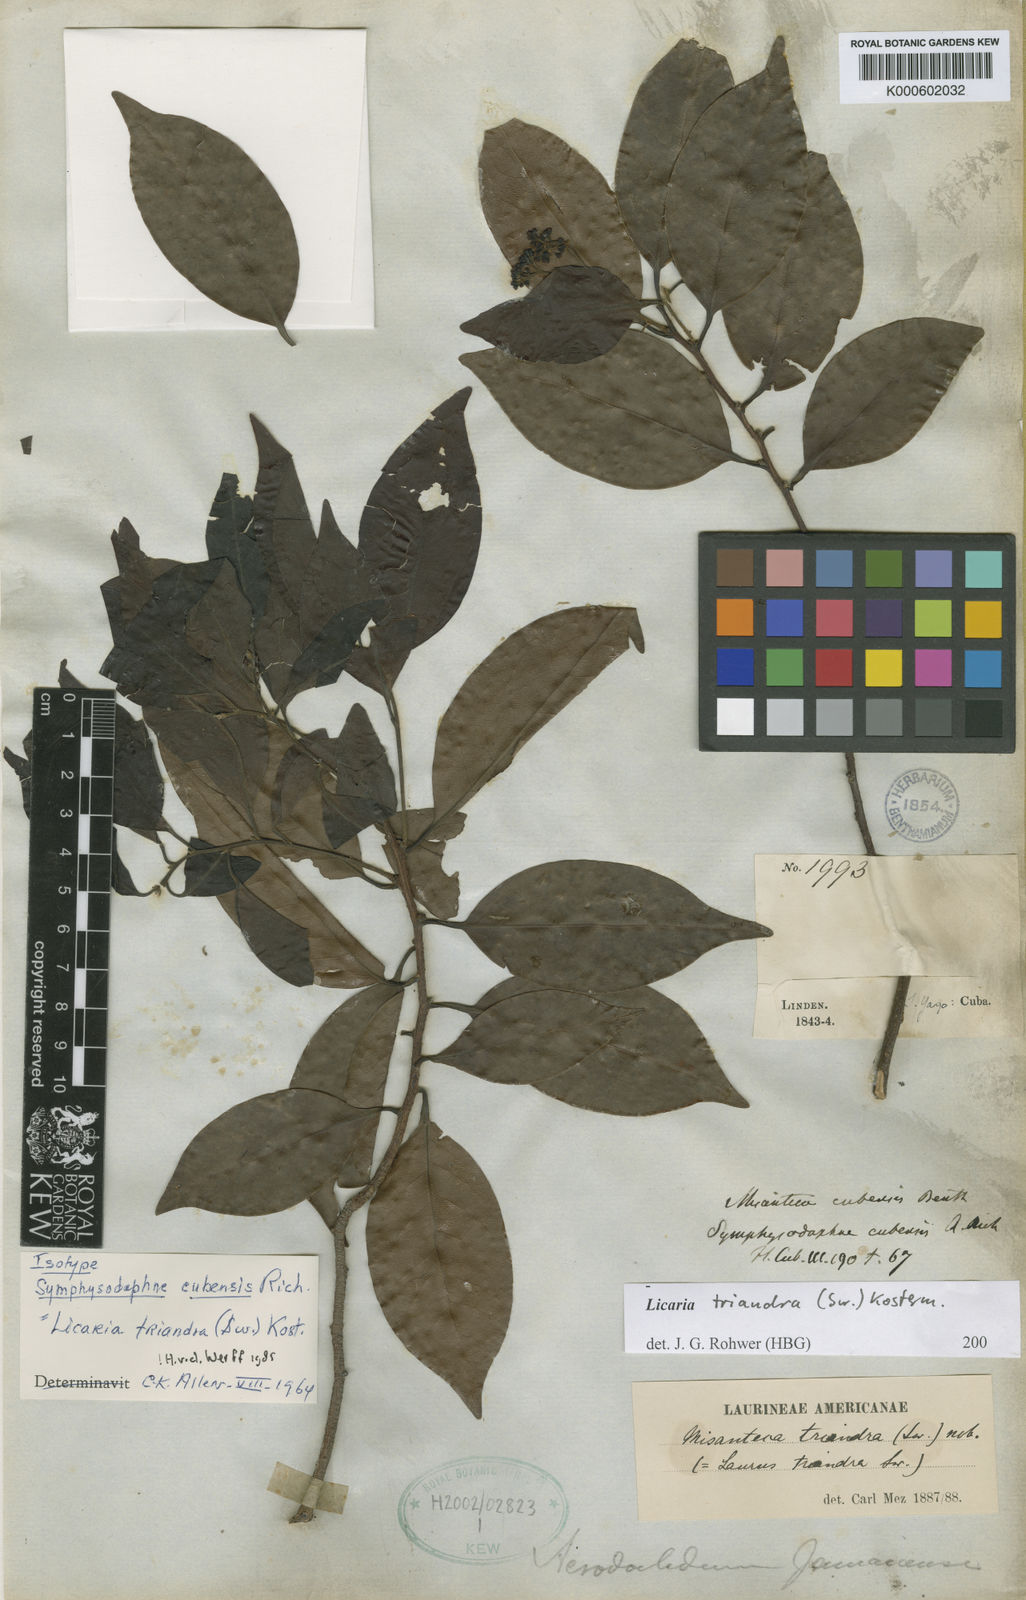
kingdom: Plantae
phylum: Tracheophyta
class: Magnoliopsida
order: Laurales
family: Lauraceae
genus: Licaria
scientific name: Licaria triandra
